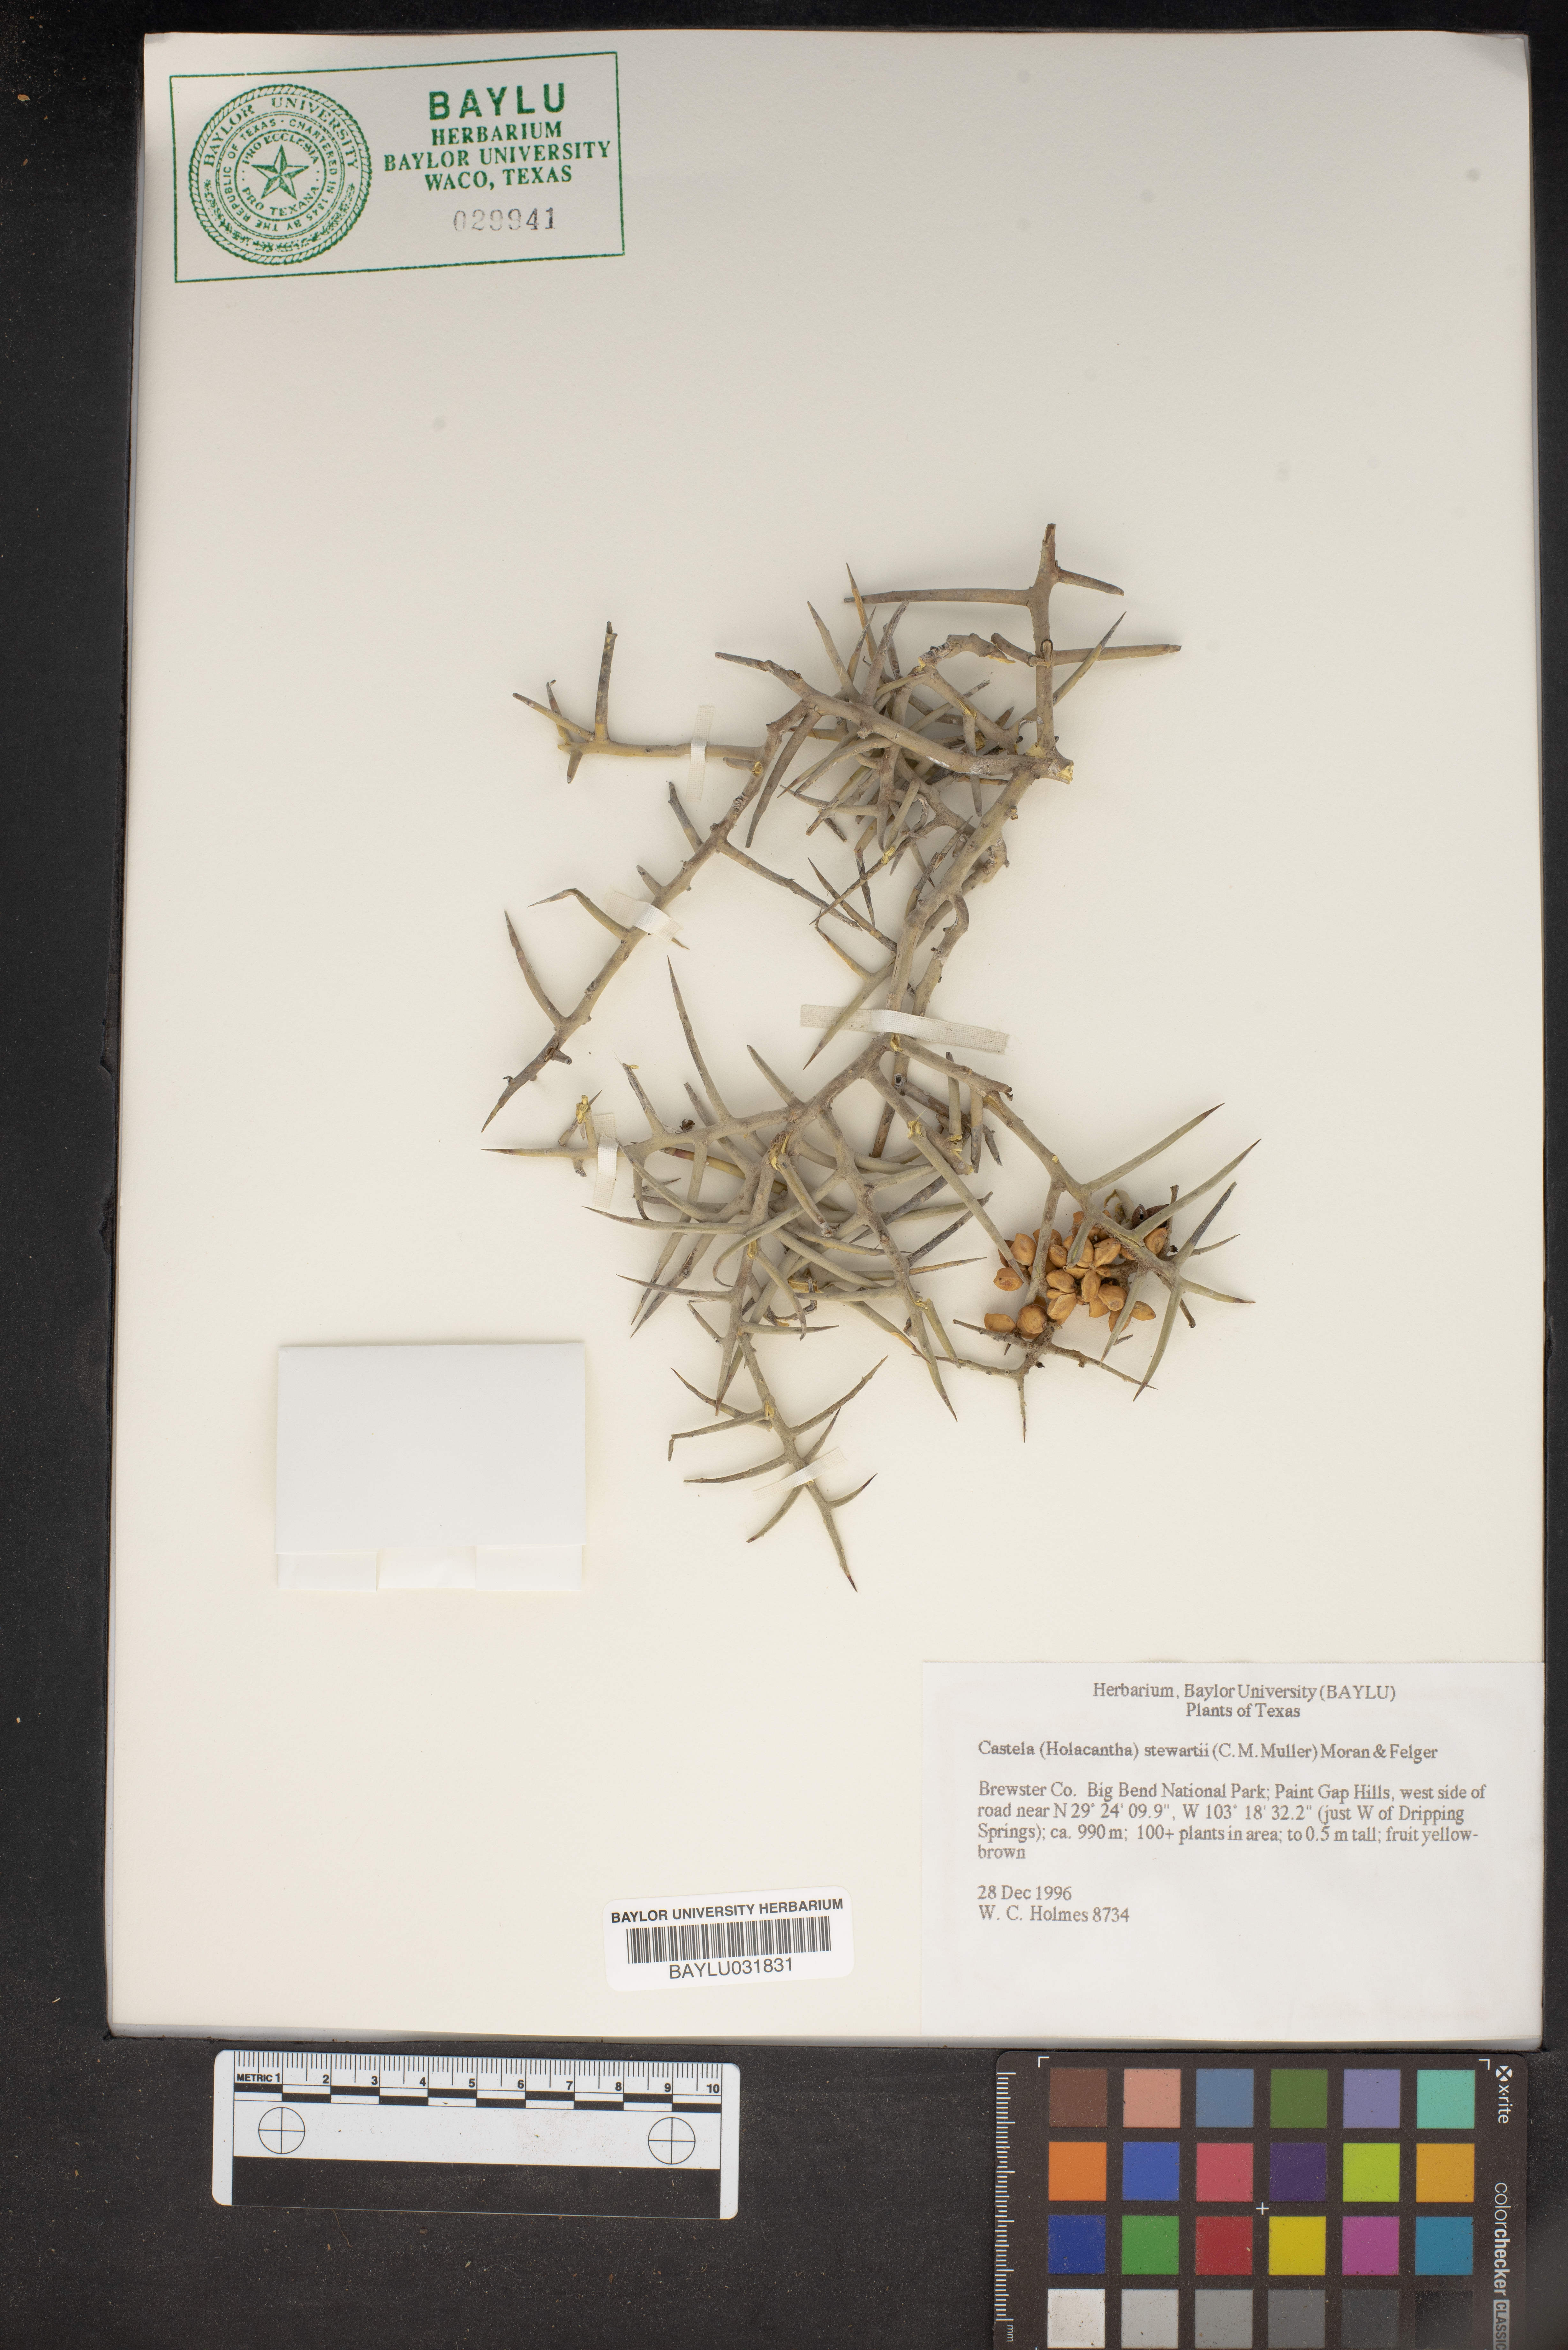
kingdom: Plantae
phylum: Tracheophyta
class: Magnoliopsida
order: Sapindales
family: Simaroubaceae
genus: Holacantha
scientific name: Holacantha stewartii
